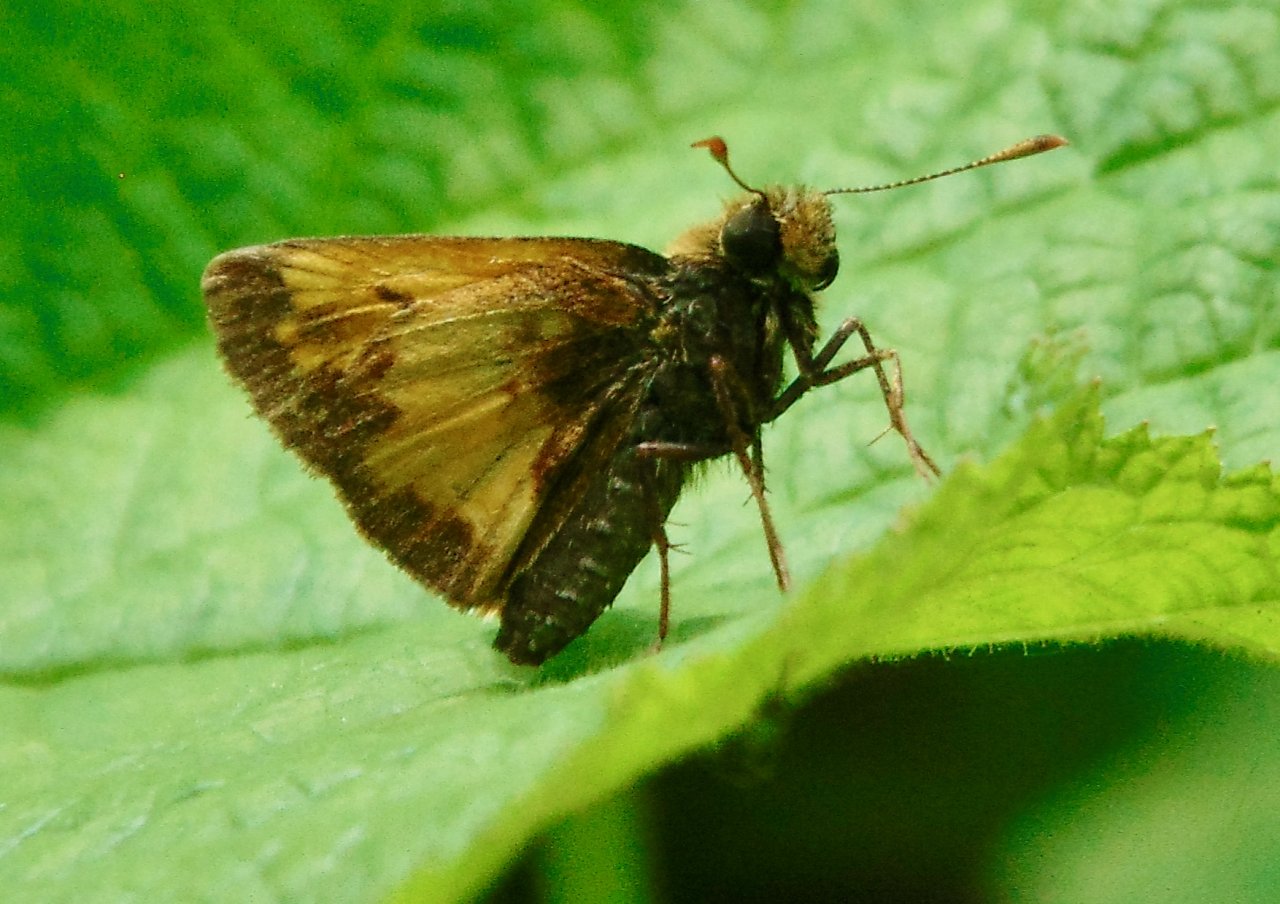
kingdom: Animalia
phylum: Arthropoda
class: Insecta
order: Lepidoptera
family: Hesperiidae
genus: Lon
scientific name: Lon hobomok
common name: Hobomok Skipper
